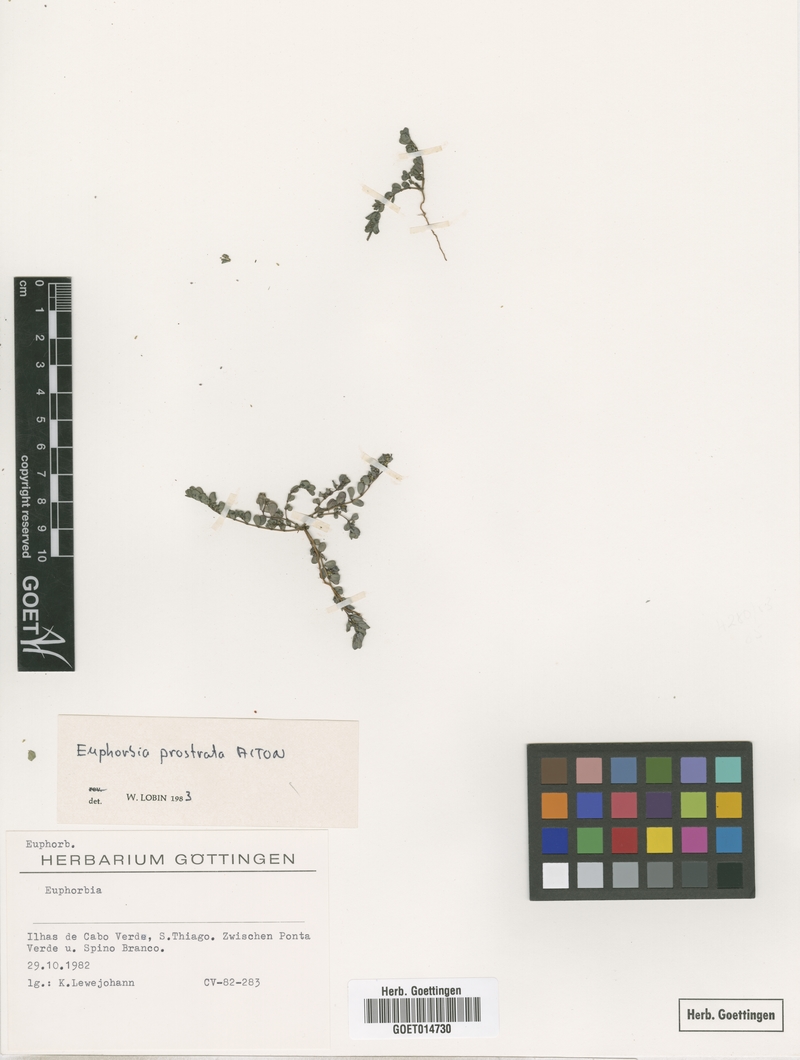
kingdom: Plantae
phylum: Tracheophyta
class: Magnoliopsida
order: Malpighiales
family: Euphorbiaceae
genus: Euphorbia
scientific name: Euphorbia prostrata
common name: Prostrate sandmat
